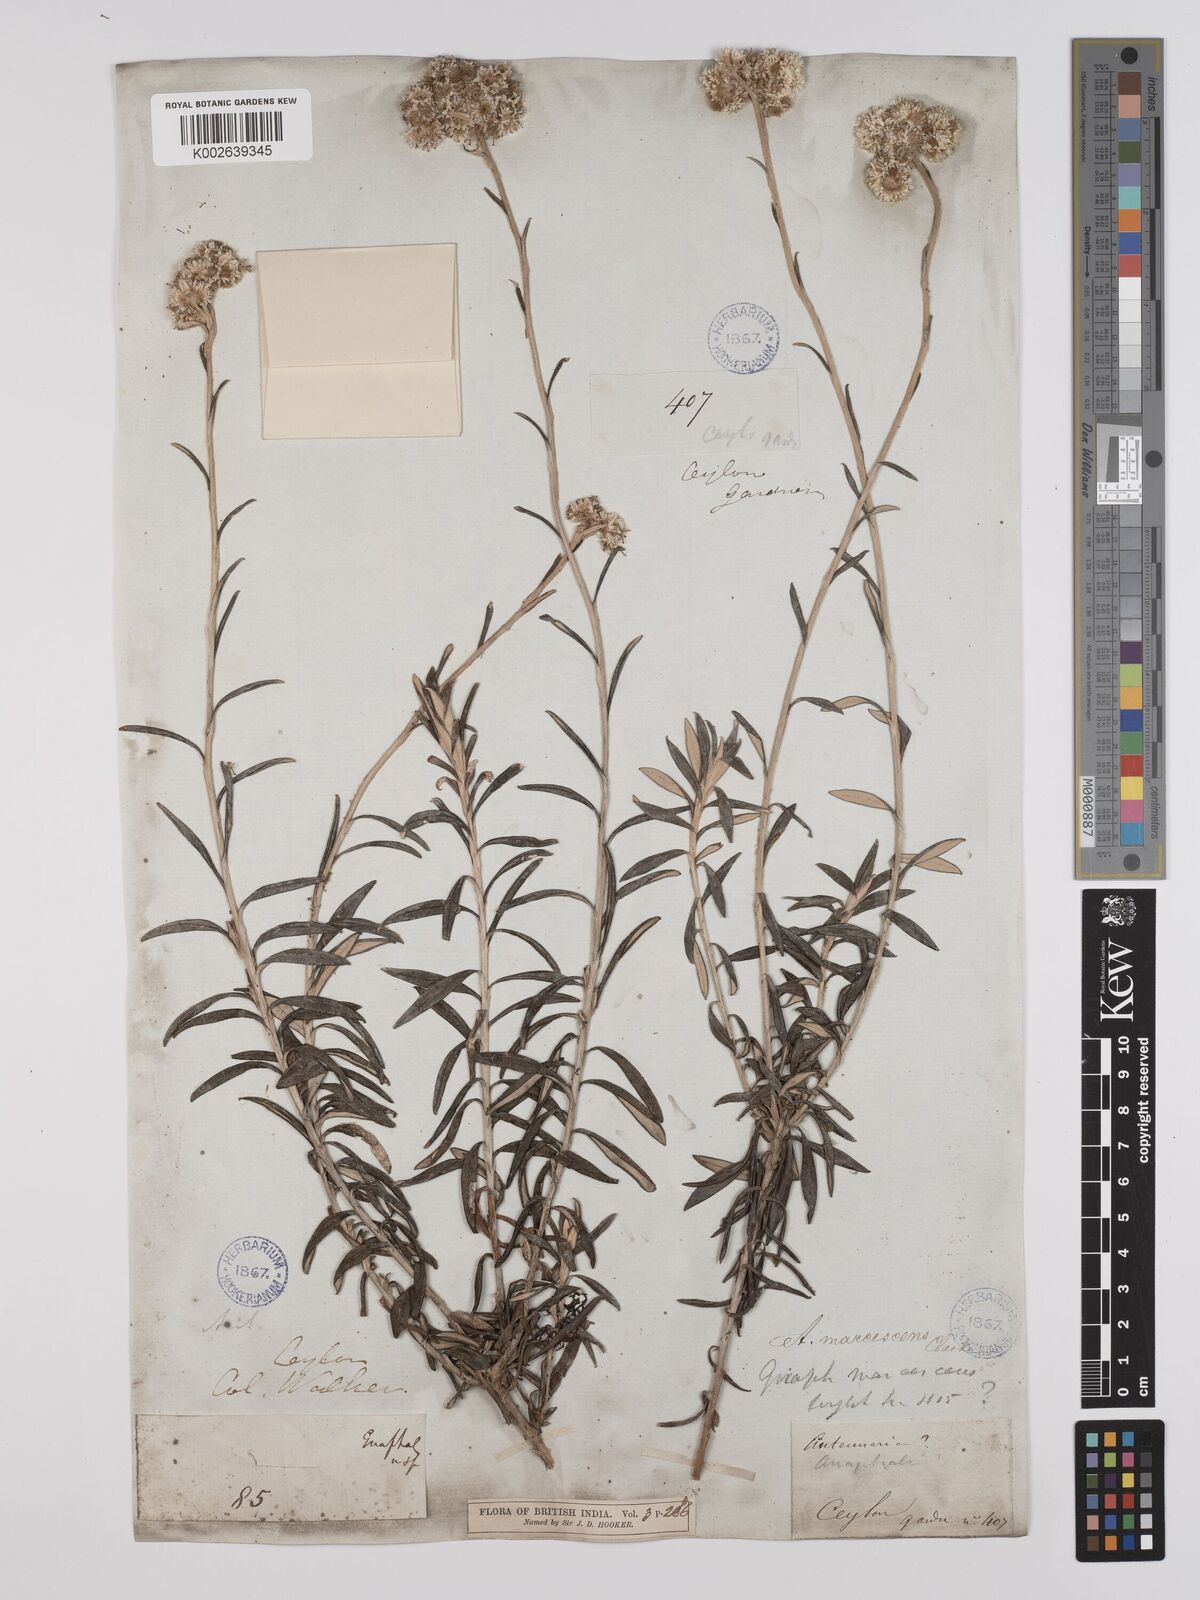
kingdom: Plantae
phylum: Tracheophyta
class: Magnoliopsida
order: Asterales
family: Asteraceae
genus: Anaphalis
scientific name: Anaphalis marcescens
